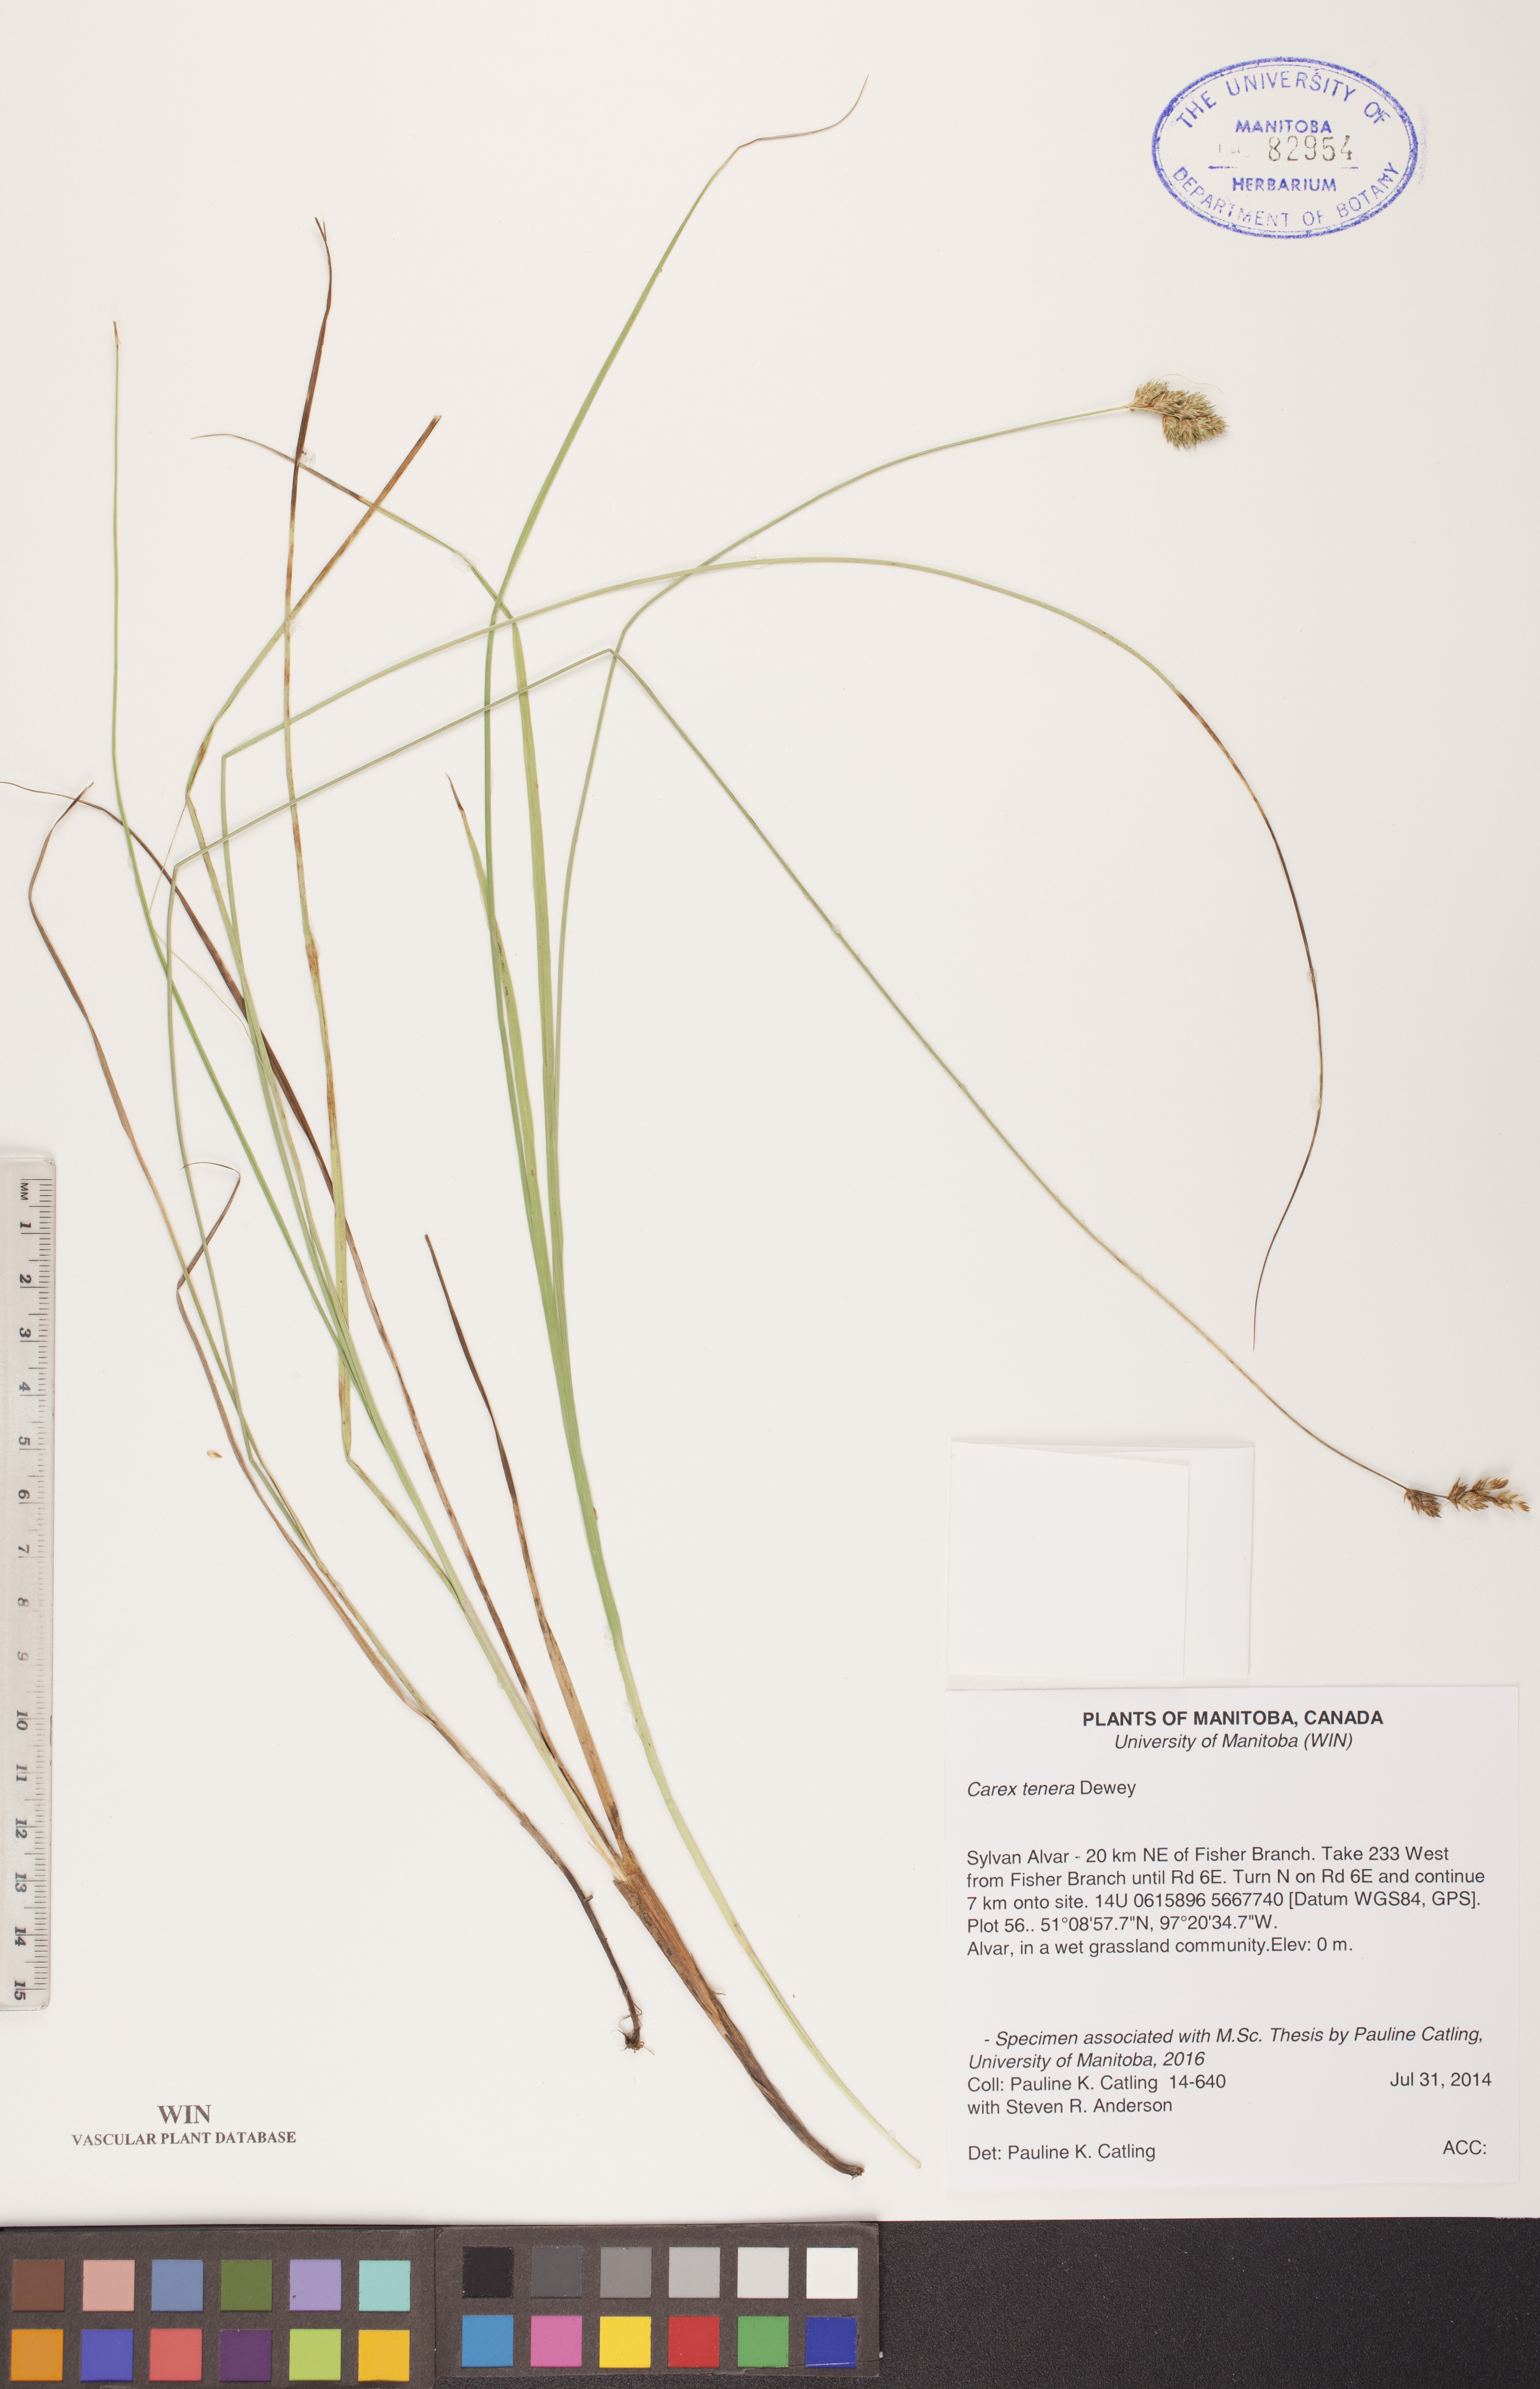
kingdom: Plantae
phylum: Tracheophyta
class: Liliopsida
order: Poales
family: Cyperaceae
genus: Carex
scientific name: Carex tenera
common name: Broad-fruited sedge
